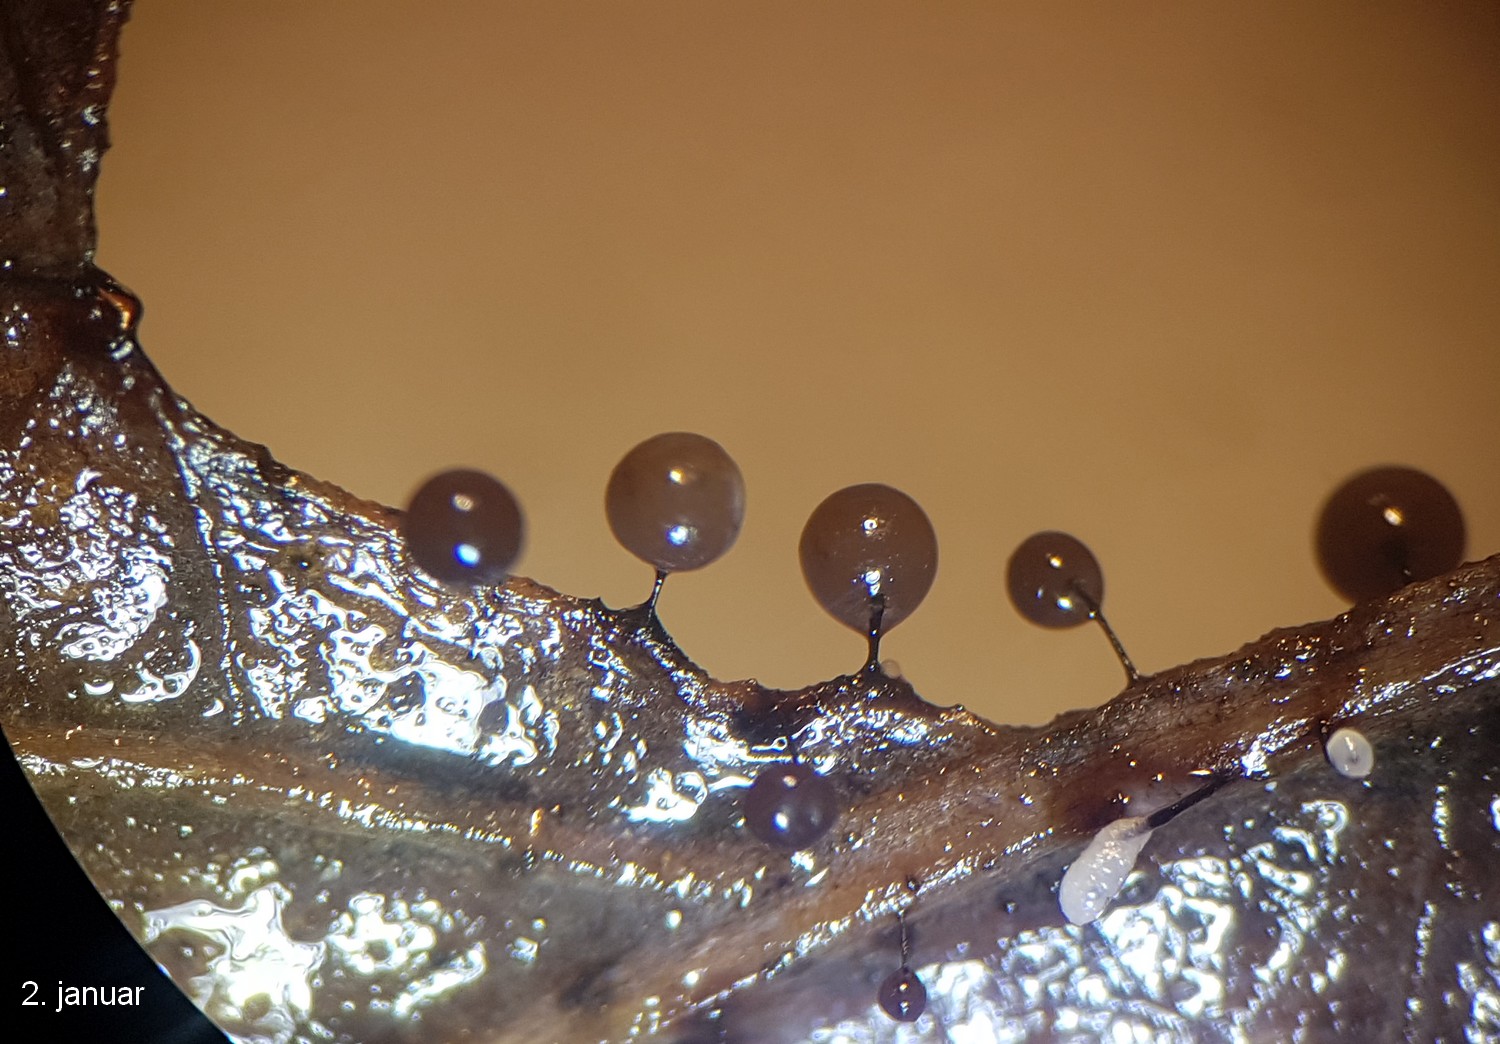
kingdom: Protozoa
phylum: Mycetozoa
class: Myxomycetes
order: Stemonitidales
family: Stemonitidaceae
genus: Lamproderma
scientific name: Lamproderma scintillans
